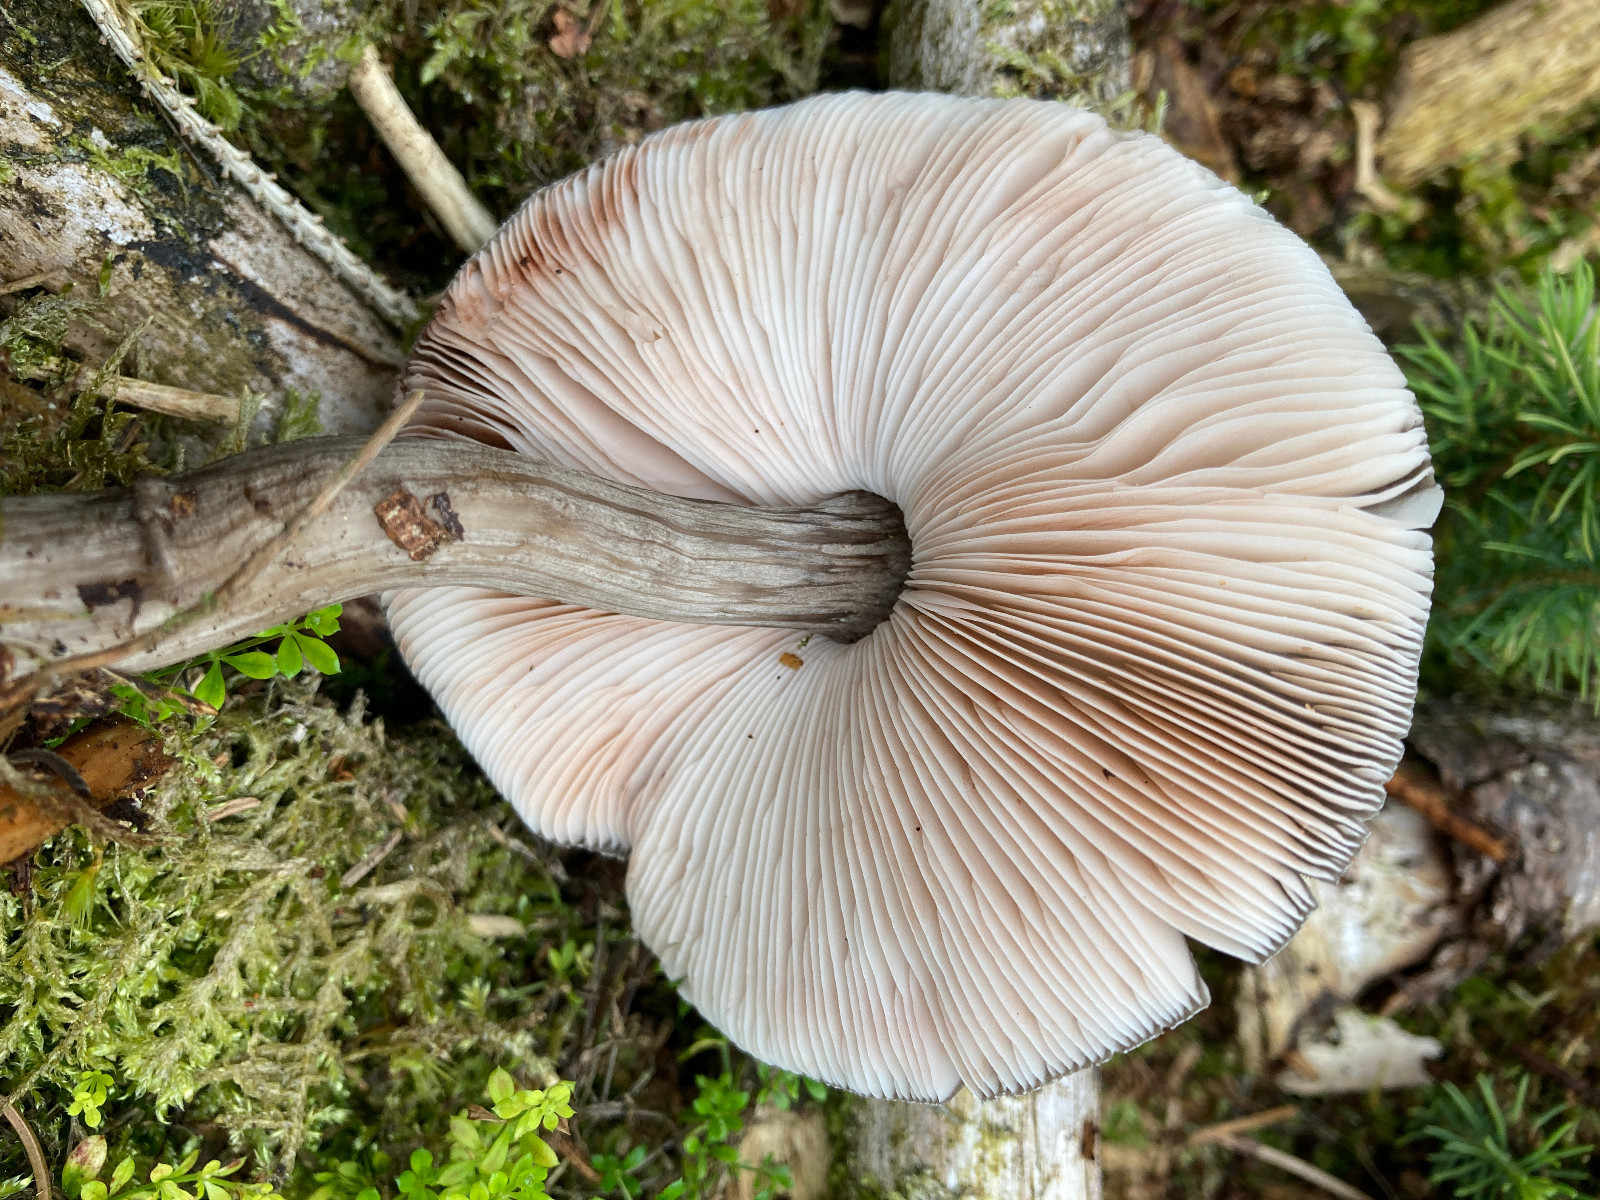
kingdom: Fungi
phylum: Basidiomycota
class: Agaricomycetes
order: Agaricales
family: Pluteaceae
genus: Pluteus
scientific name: Pluteus
